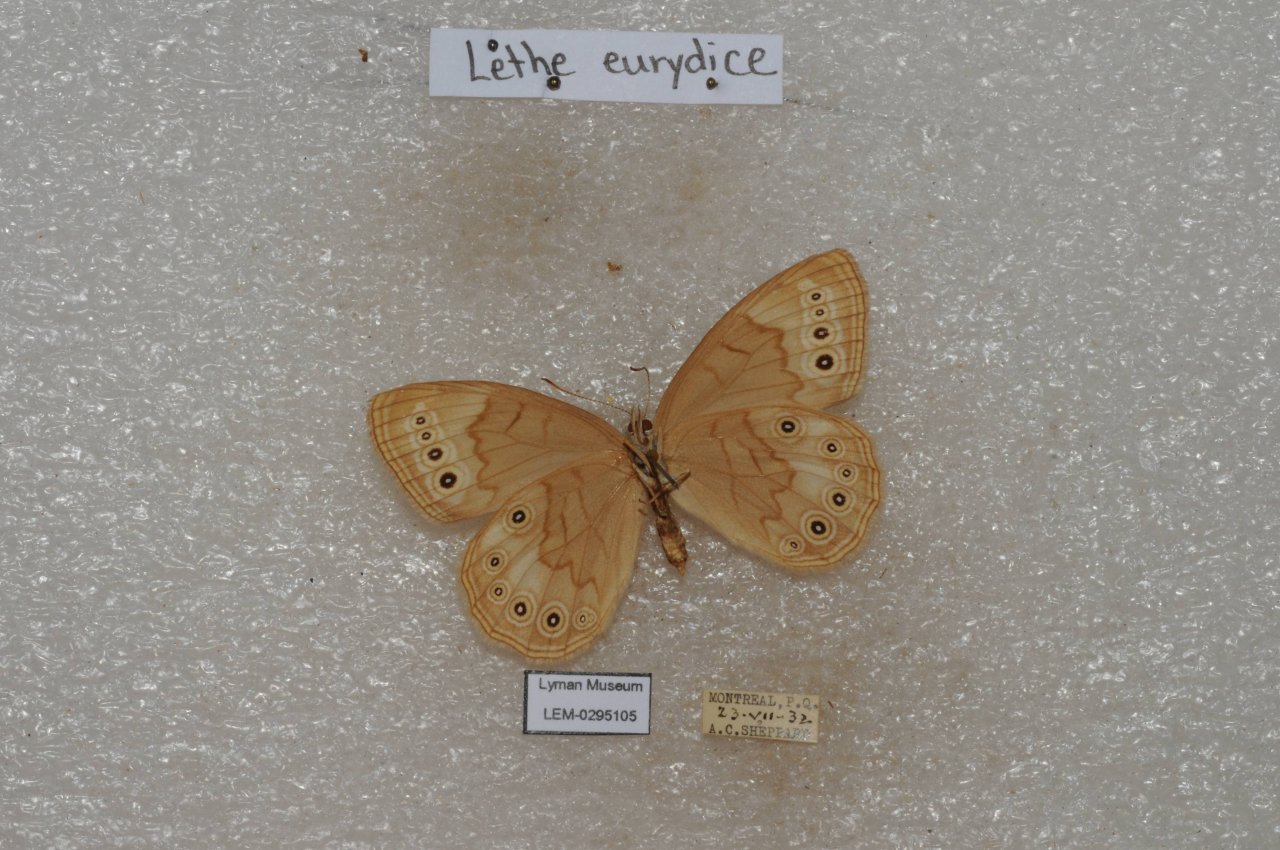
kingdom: Animalia
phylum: Arthropoda
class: Insecta
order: Lepidoptera
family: Nymphalidae
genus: Lethe
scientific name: Lethe eurydice
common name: Eyed Brown
